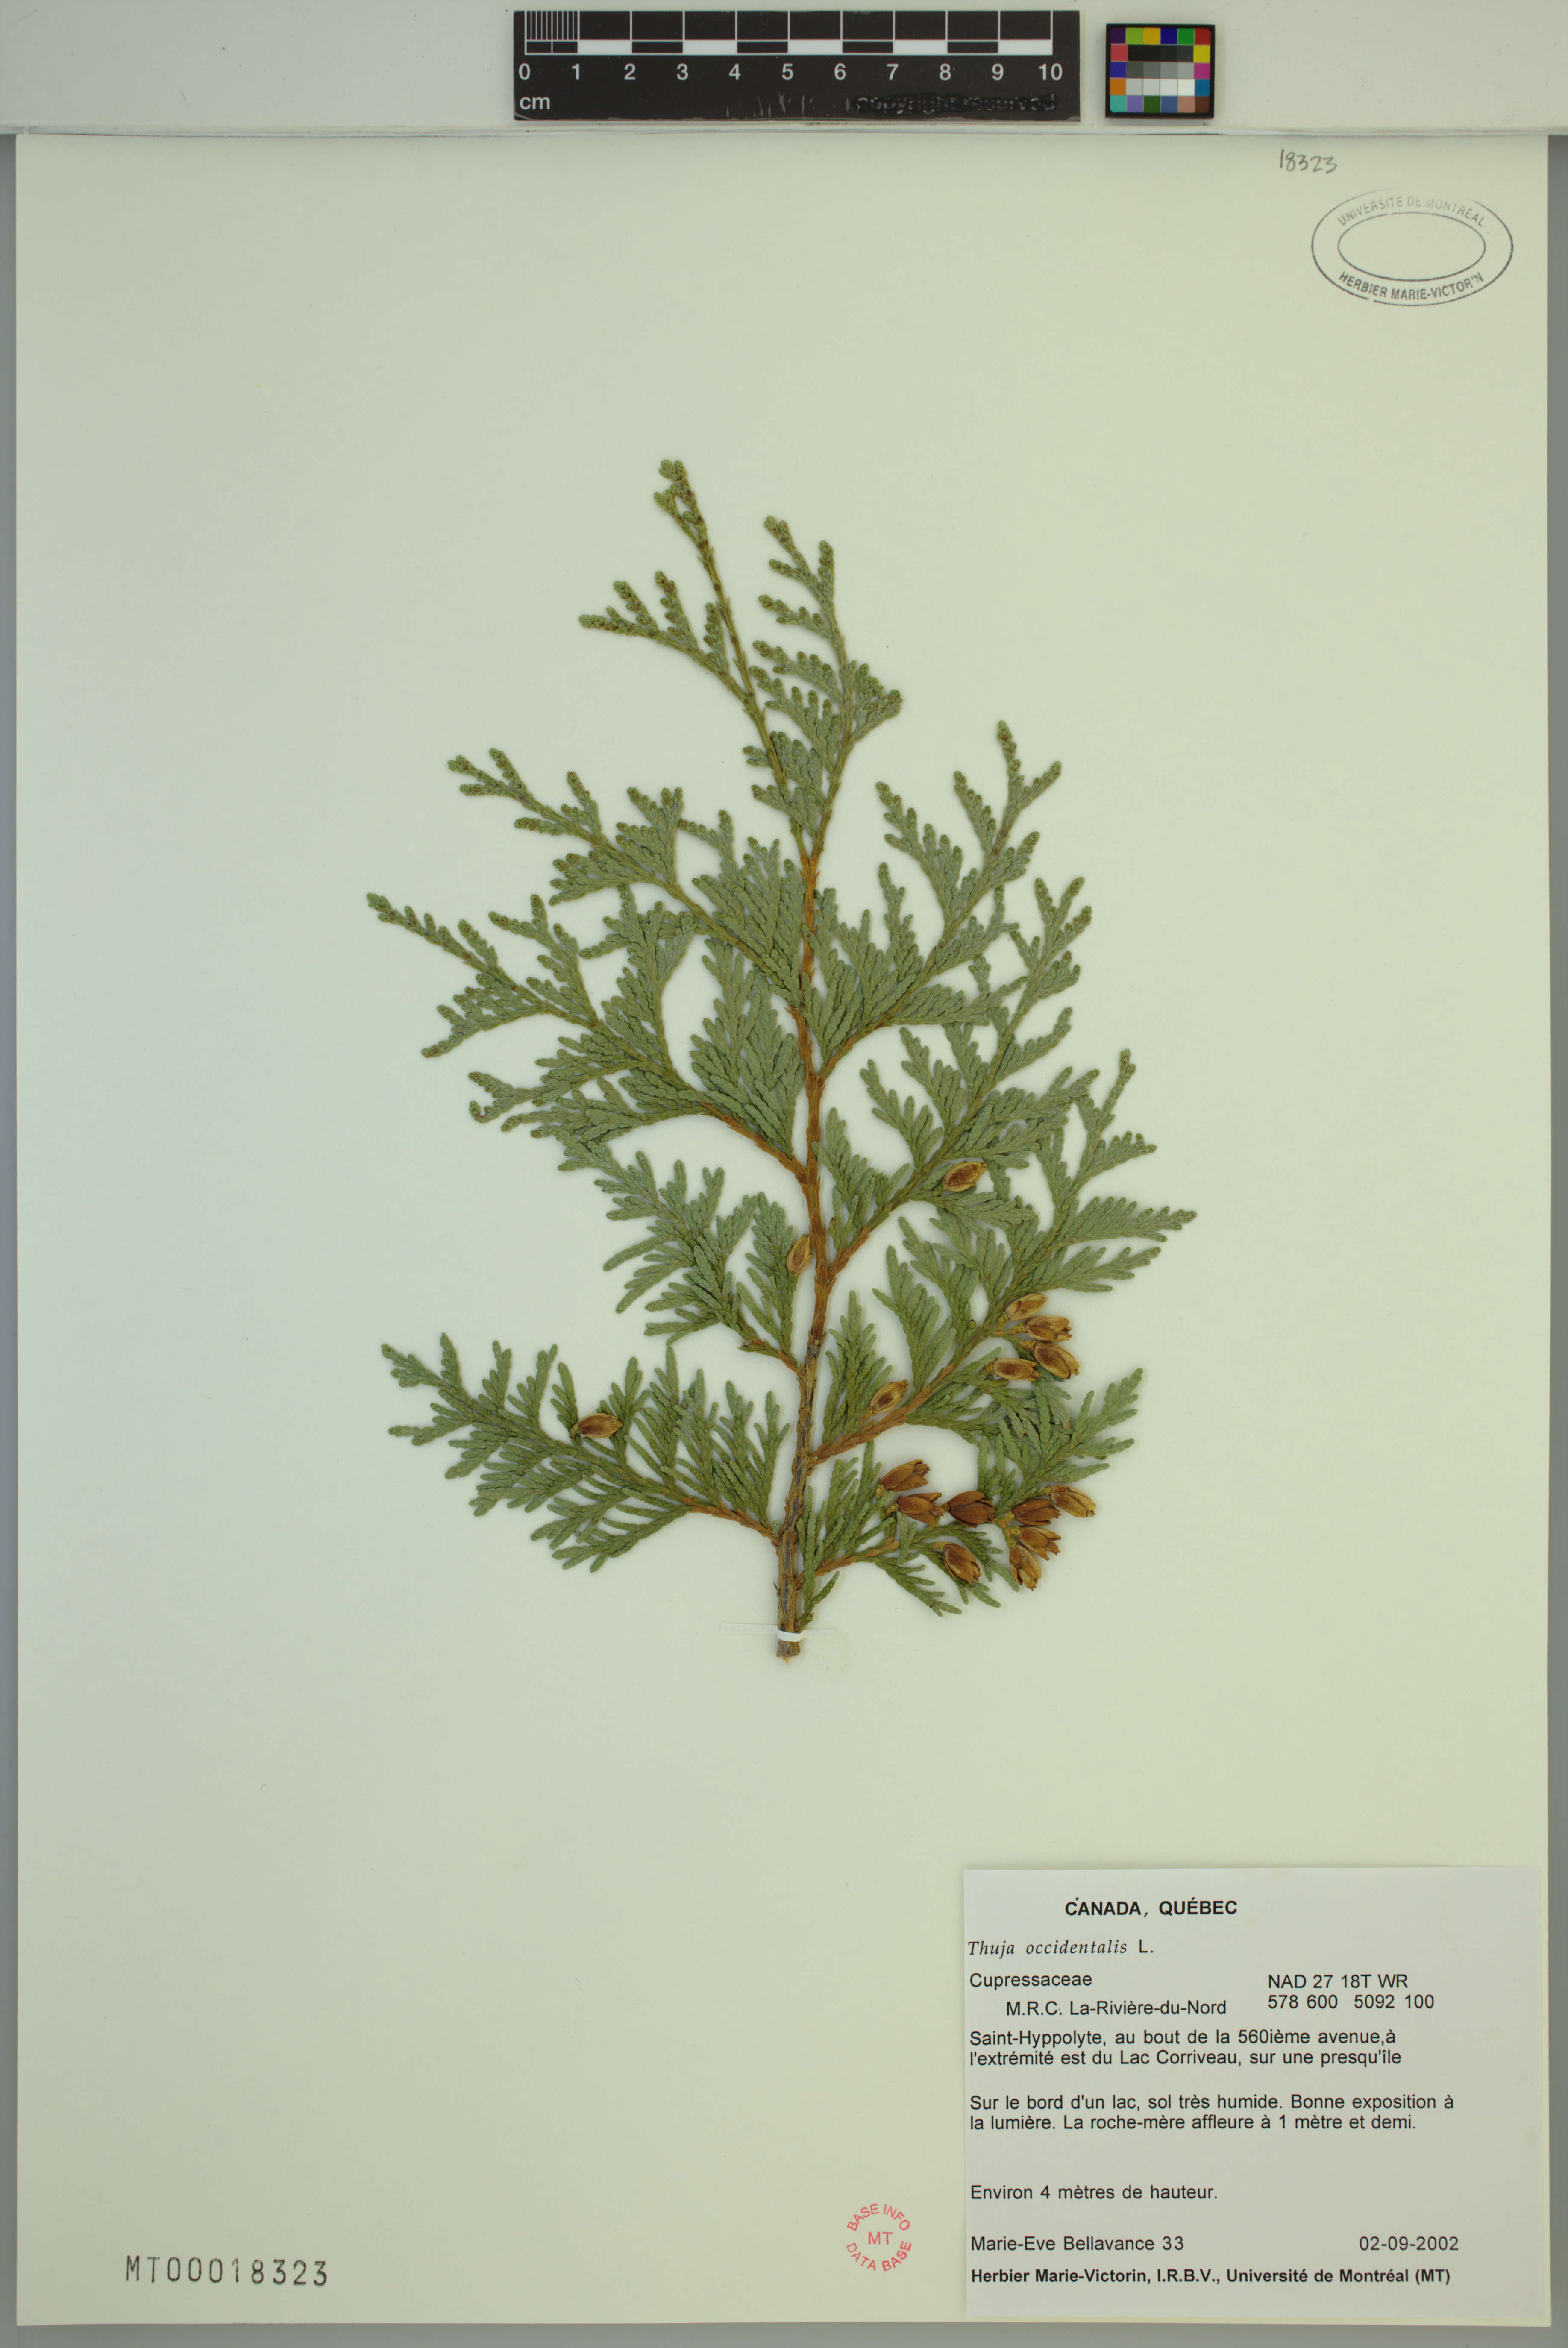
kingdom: Plantae
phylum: Tracheophyta
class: Pinopsida
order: Pinales
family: Cupressaceae
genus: Thuja
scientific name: Thuja occidentalis
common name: Northern white-cedar
